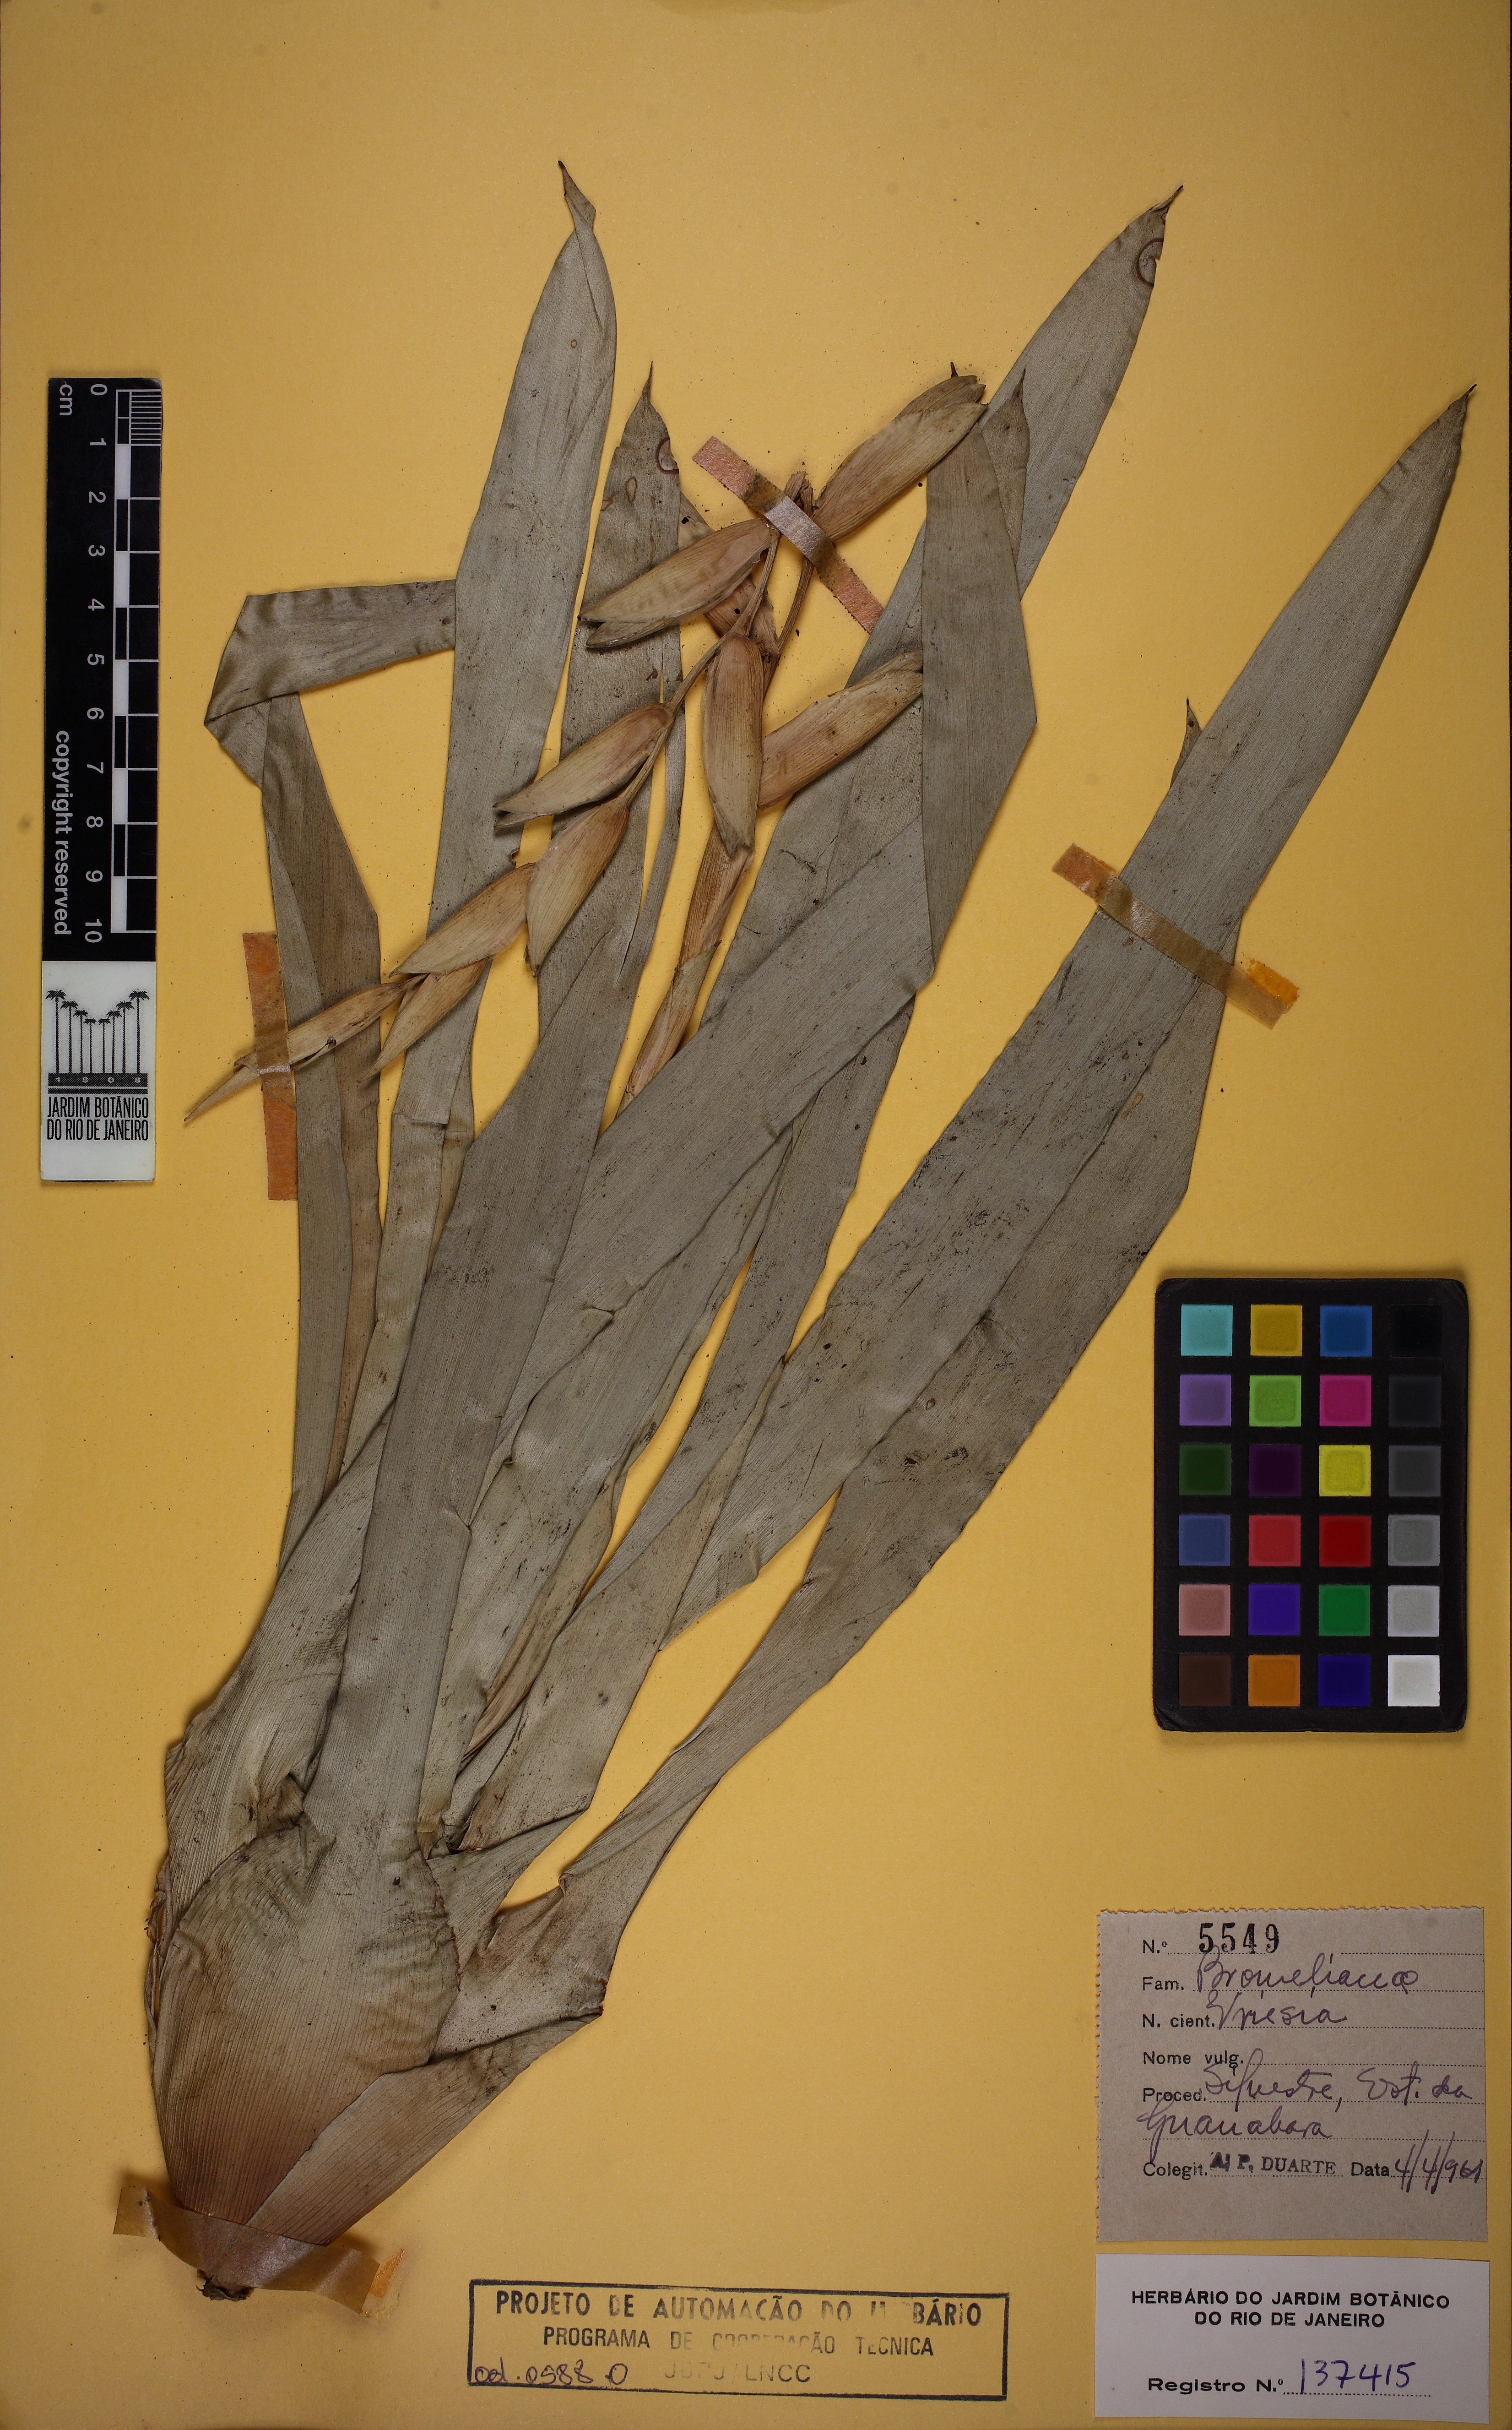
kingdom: Plantae
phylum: Tracheophyta
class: Liliopsida
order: Poales
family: Bromeliaceae
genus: Vriesea
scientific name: Vriesea psittacina
